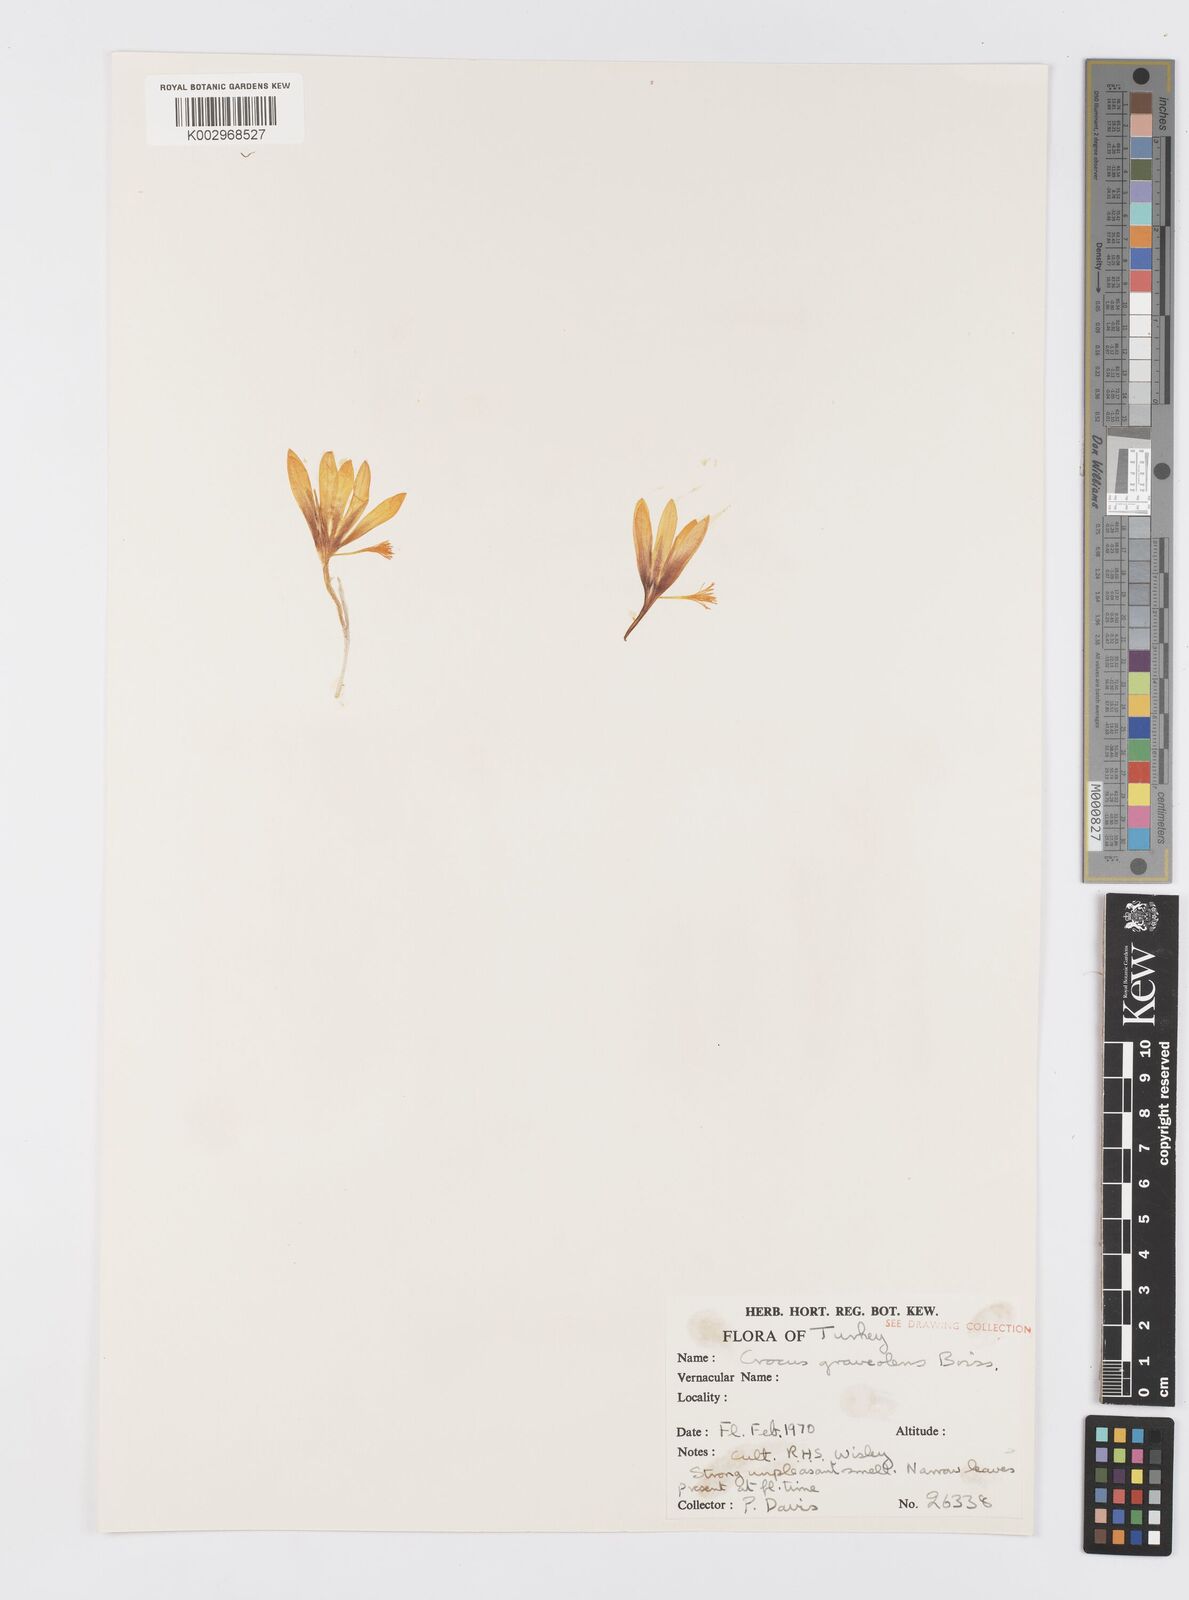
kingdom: Plantae
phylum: Tracheophyta
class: Liliopsida
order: Asparagales
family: Iridaceae
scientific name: Iridaceae
